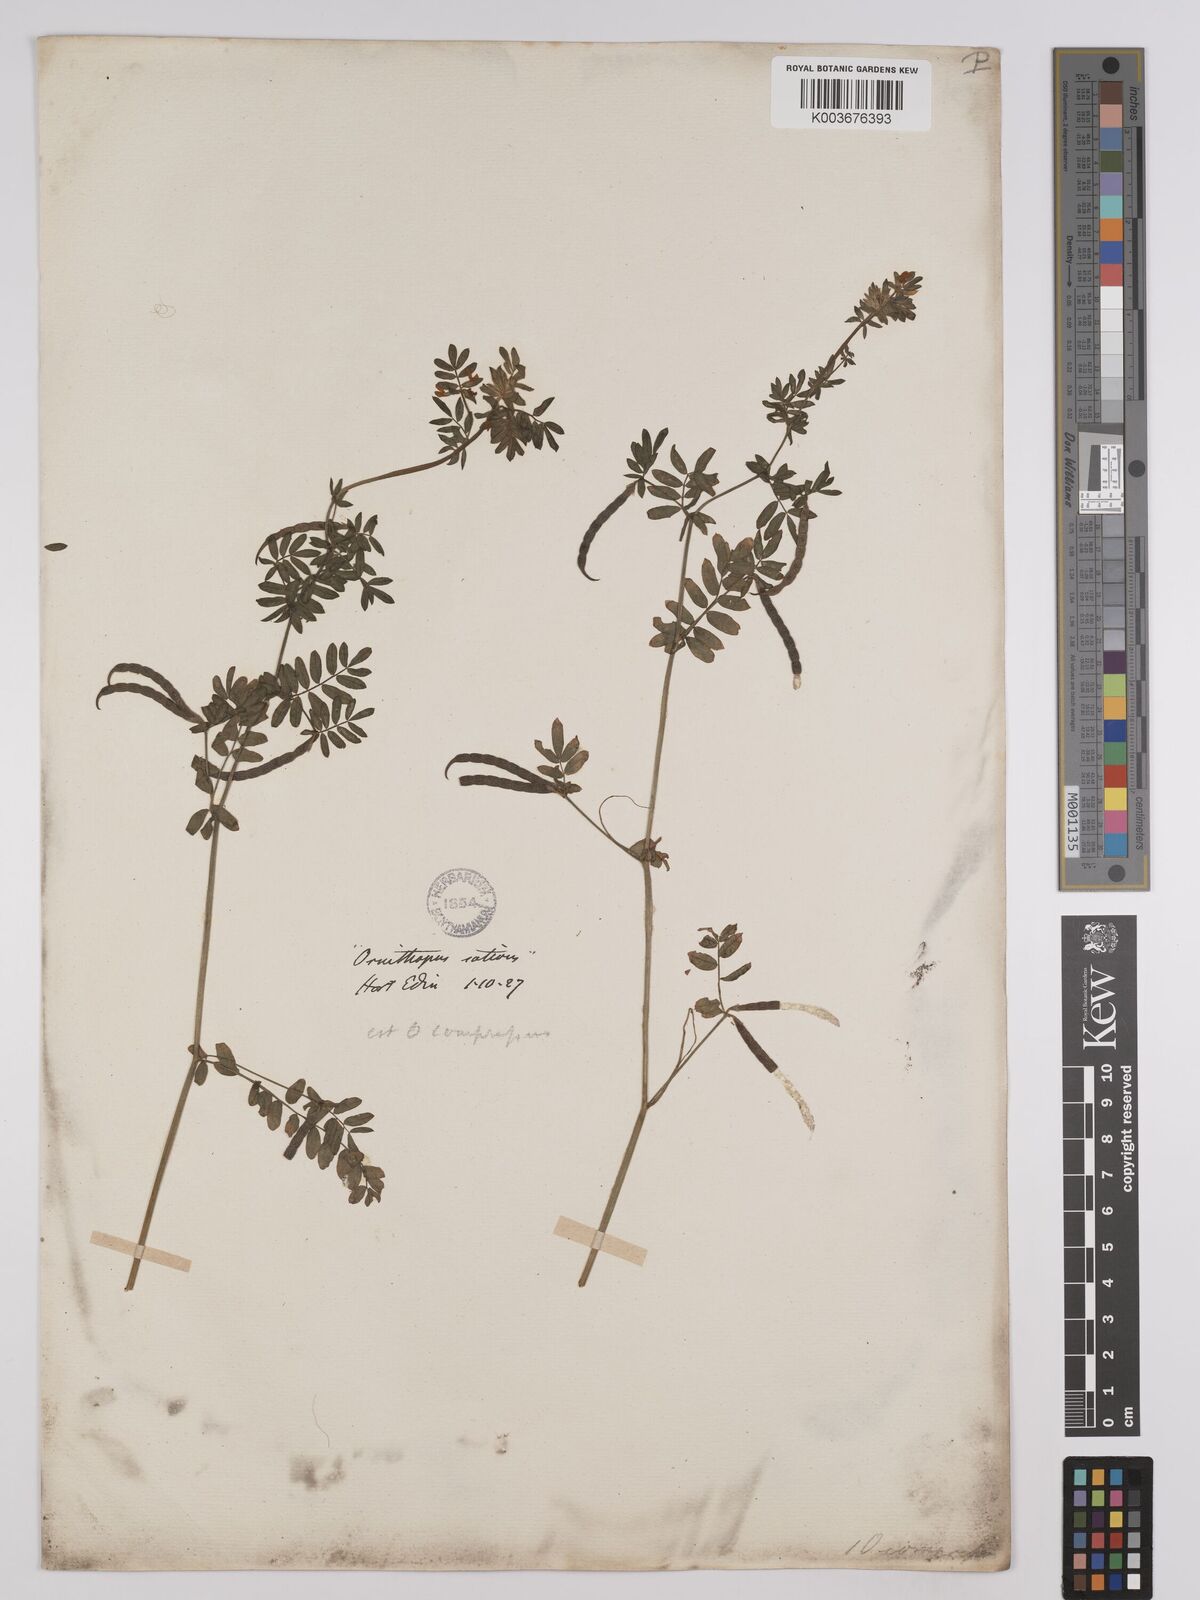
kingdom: Plantae
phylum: Tracheophyta
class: Magnoliopsida
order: Fabales
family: Fabaceae
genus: Ornithopus
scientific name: Ornithopus compressus
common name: Yellow serradella
